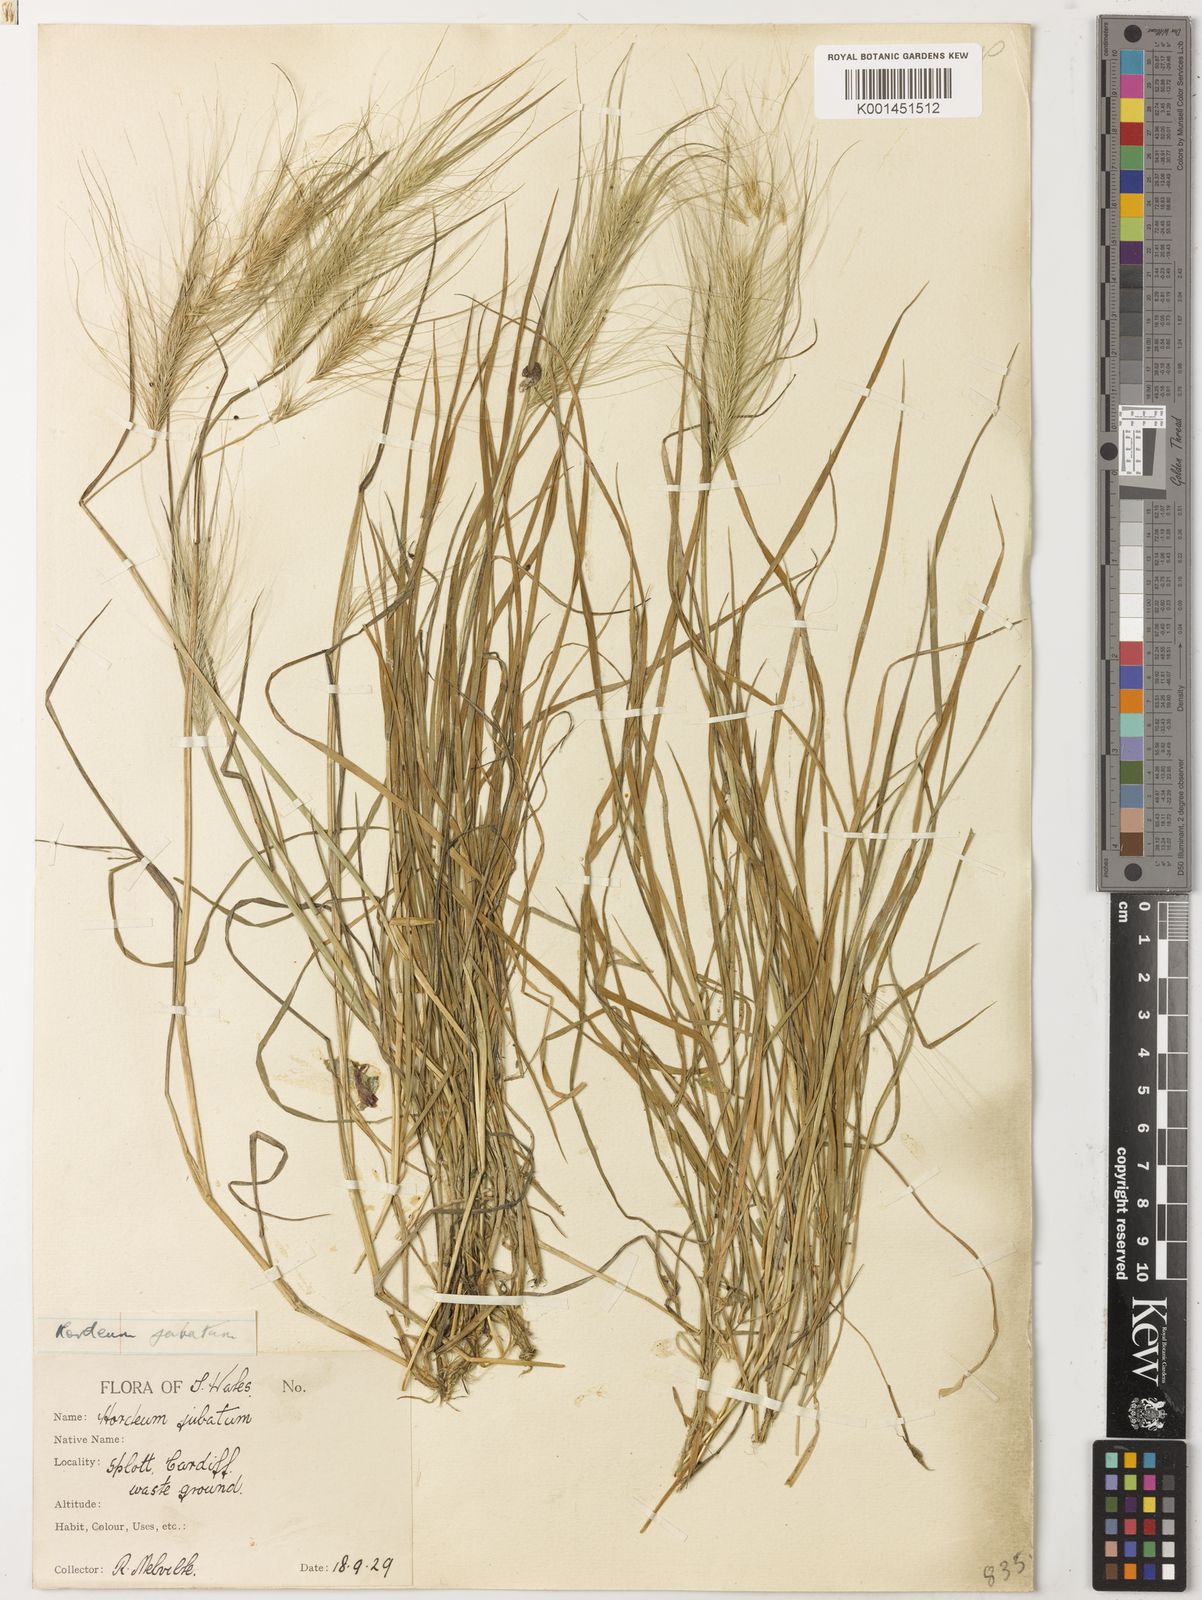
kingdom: Plantae
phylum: Tracheophyta
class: Liliopsida
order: Poales
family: Poaceae
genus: Hordeum
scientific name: Hordeum jubatum
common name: Foxtail barley
